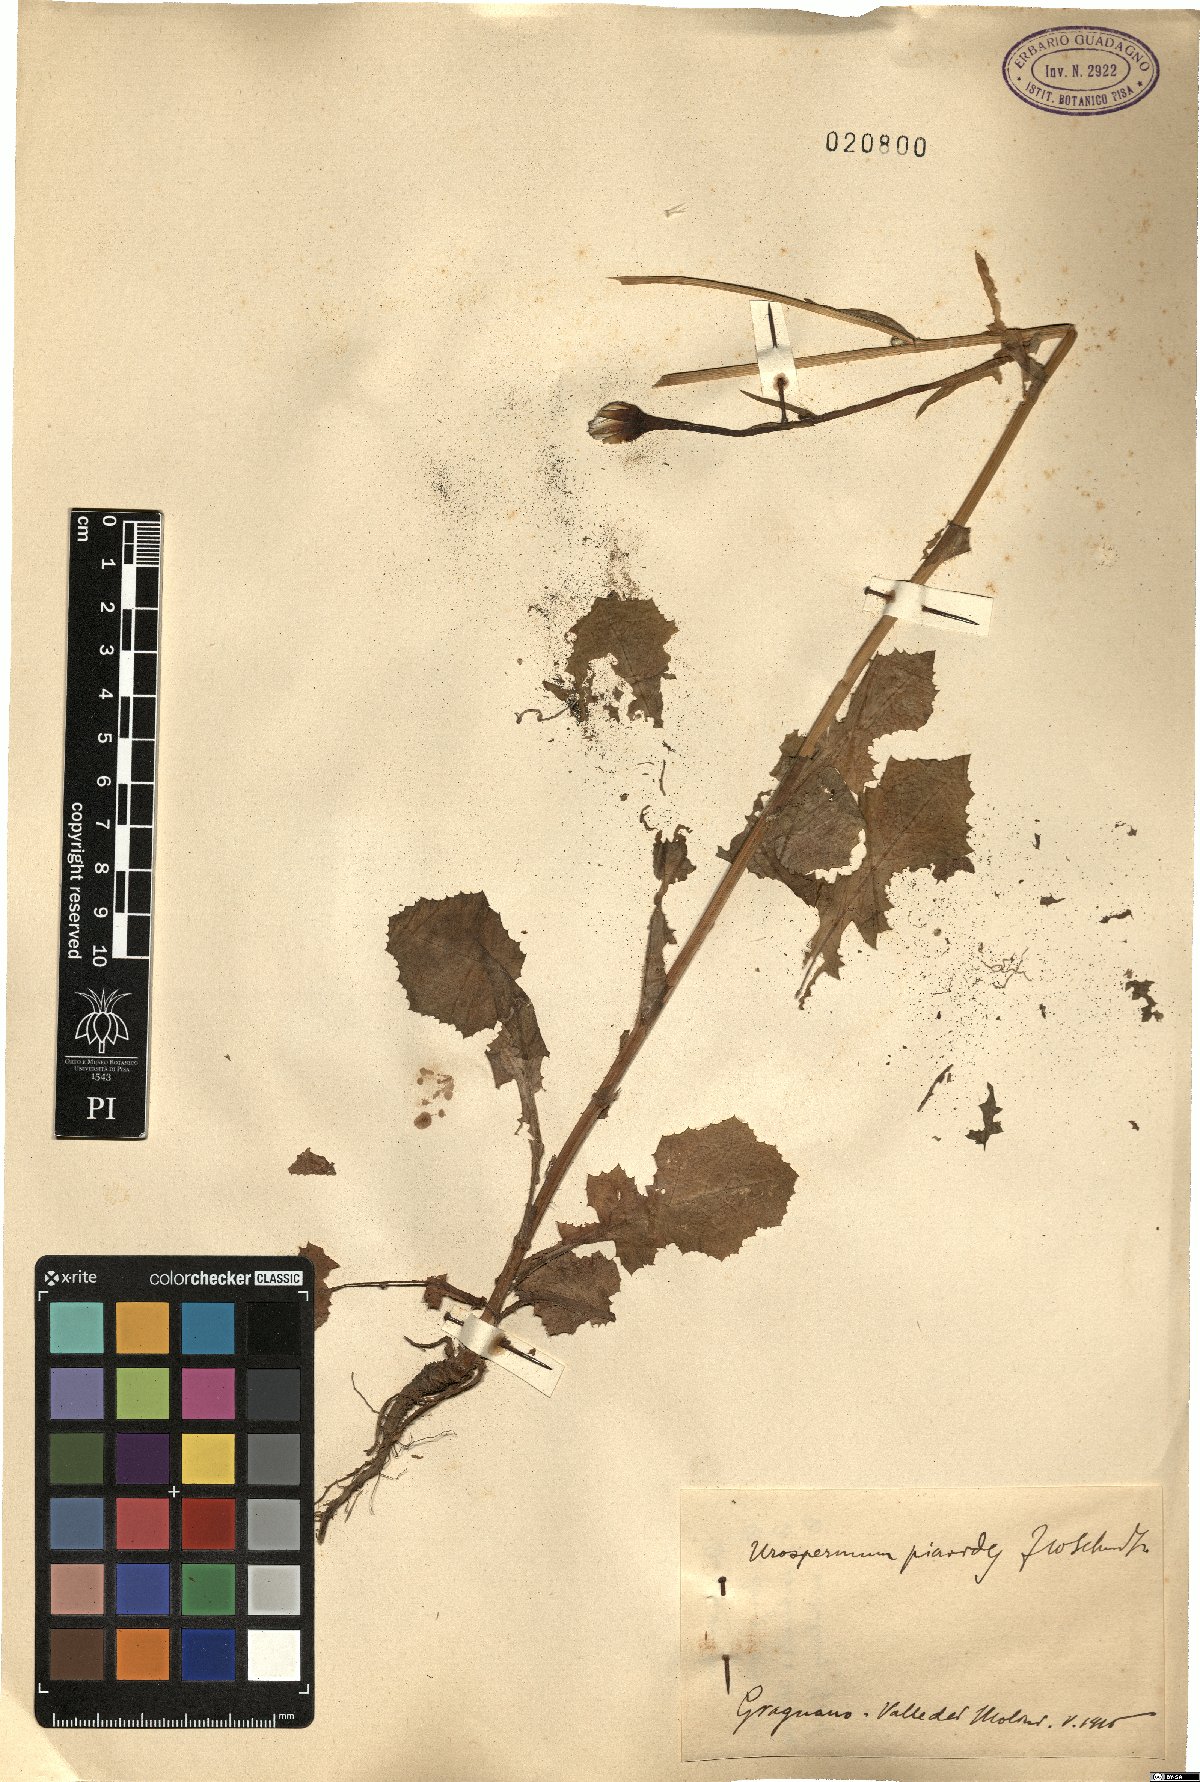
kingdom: Plantae
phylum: Tracheophyta
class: Magnoliopsida
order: Asterales
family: Asteraceae
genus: Urospermum
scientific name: Urospermum picroides
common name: False hawkbit
